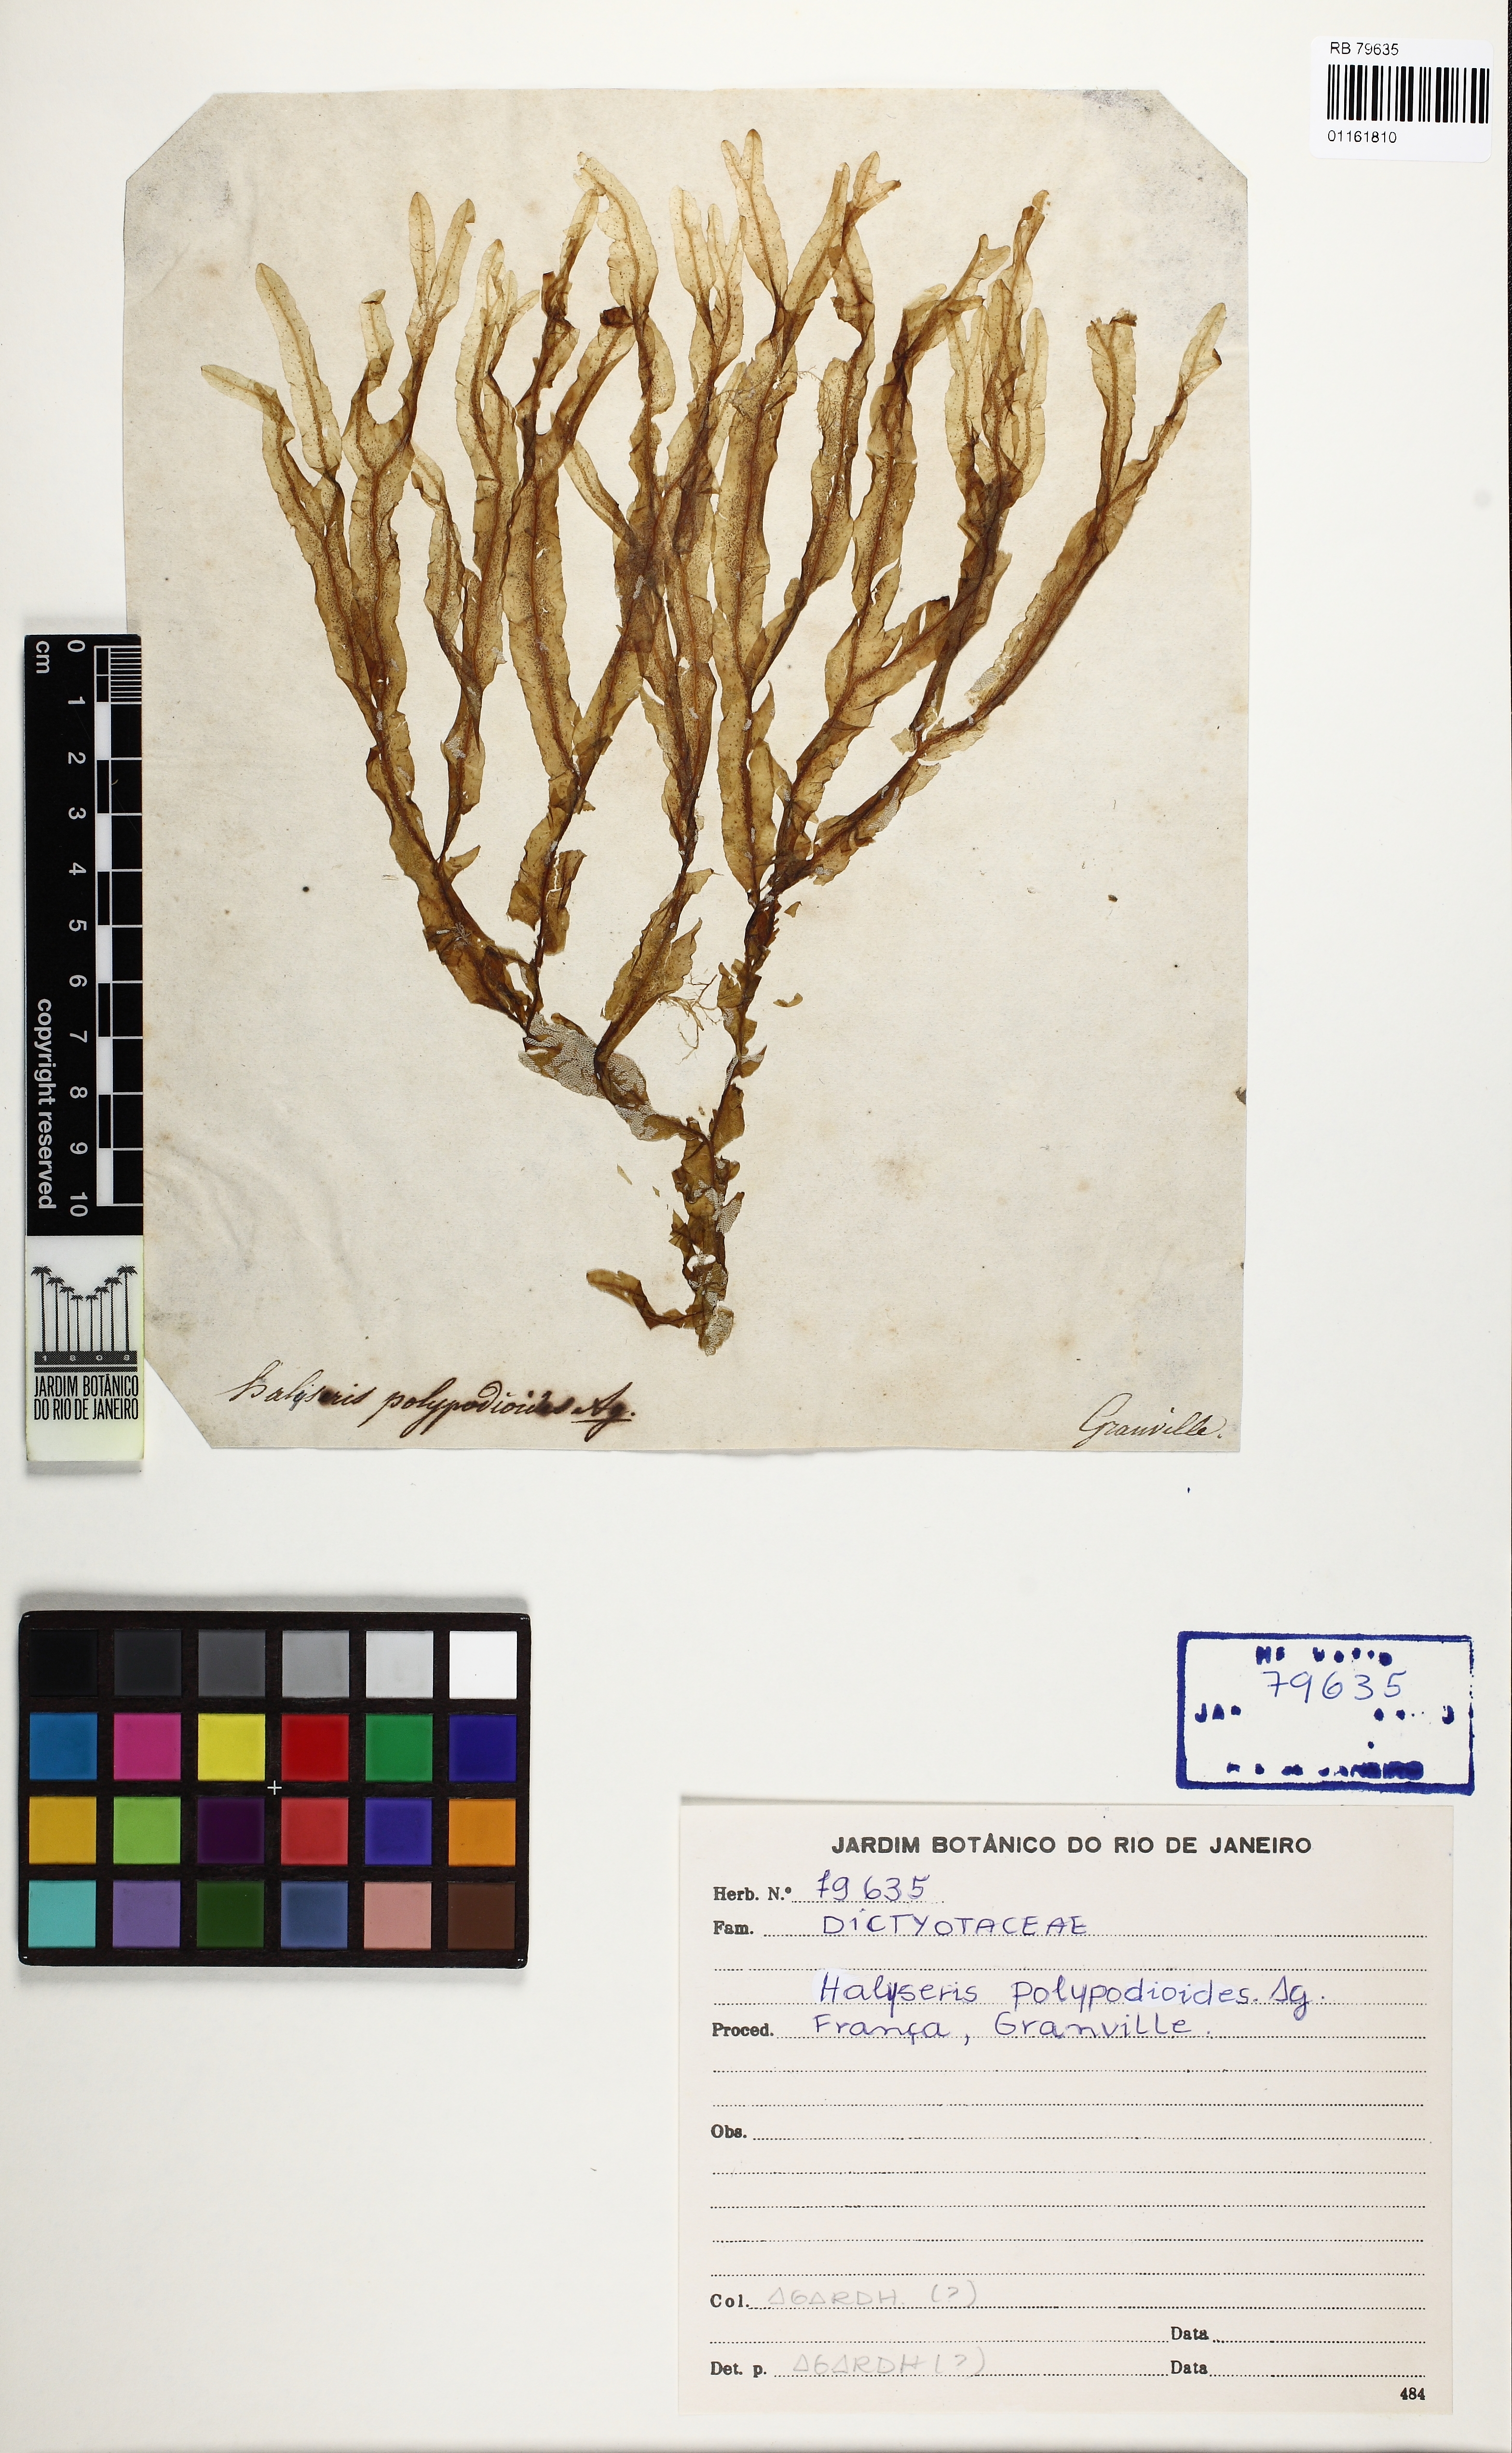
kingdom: Chromista
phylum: Ochrophyta
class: Phaeophyceae
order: Dictyotales
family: Dictyotaceae
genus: Dictyopteris
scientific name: Dictyopteris polypodioides
